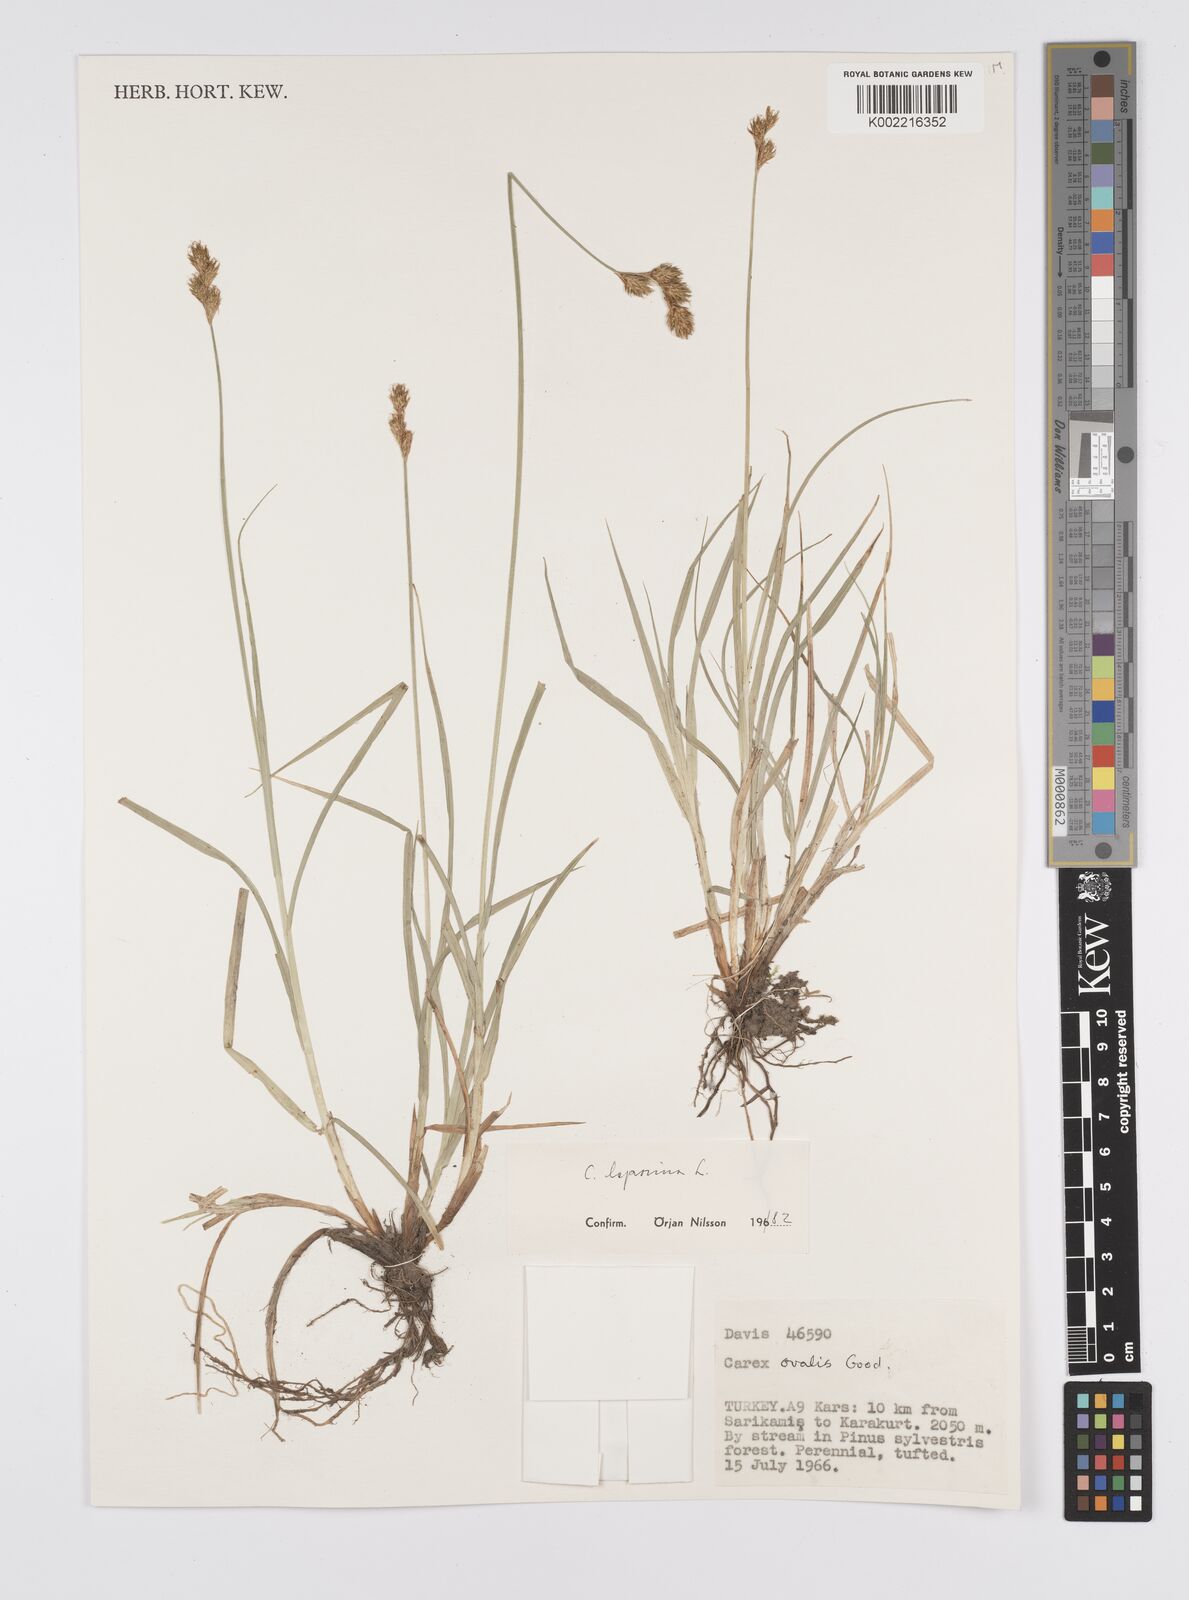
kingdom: Plantae
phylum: Tracheophyta
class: Liliopsida
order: Poales
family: Cyperaceae
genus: Carex
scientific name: Carex leporina
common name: Oval sedge
